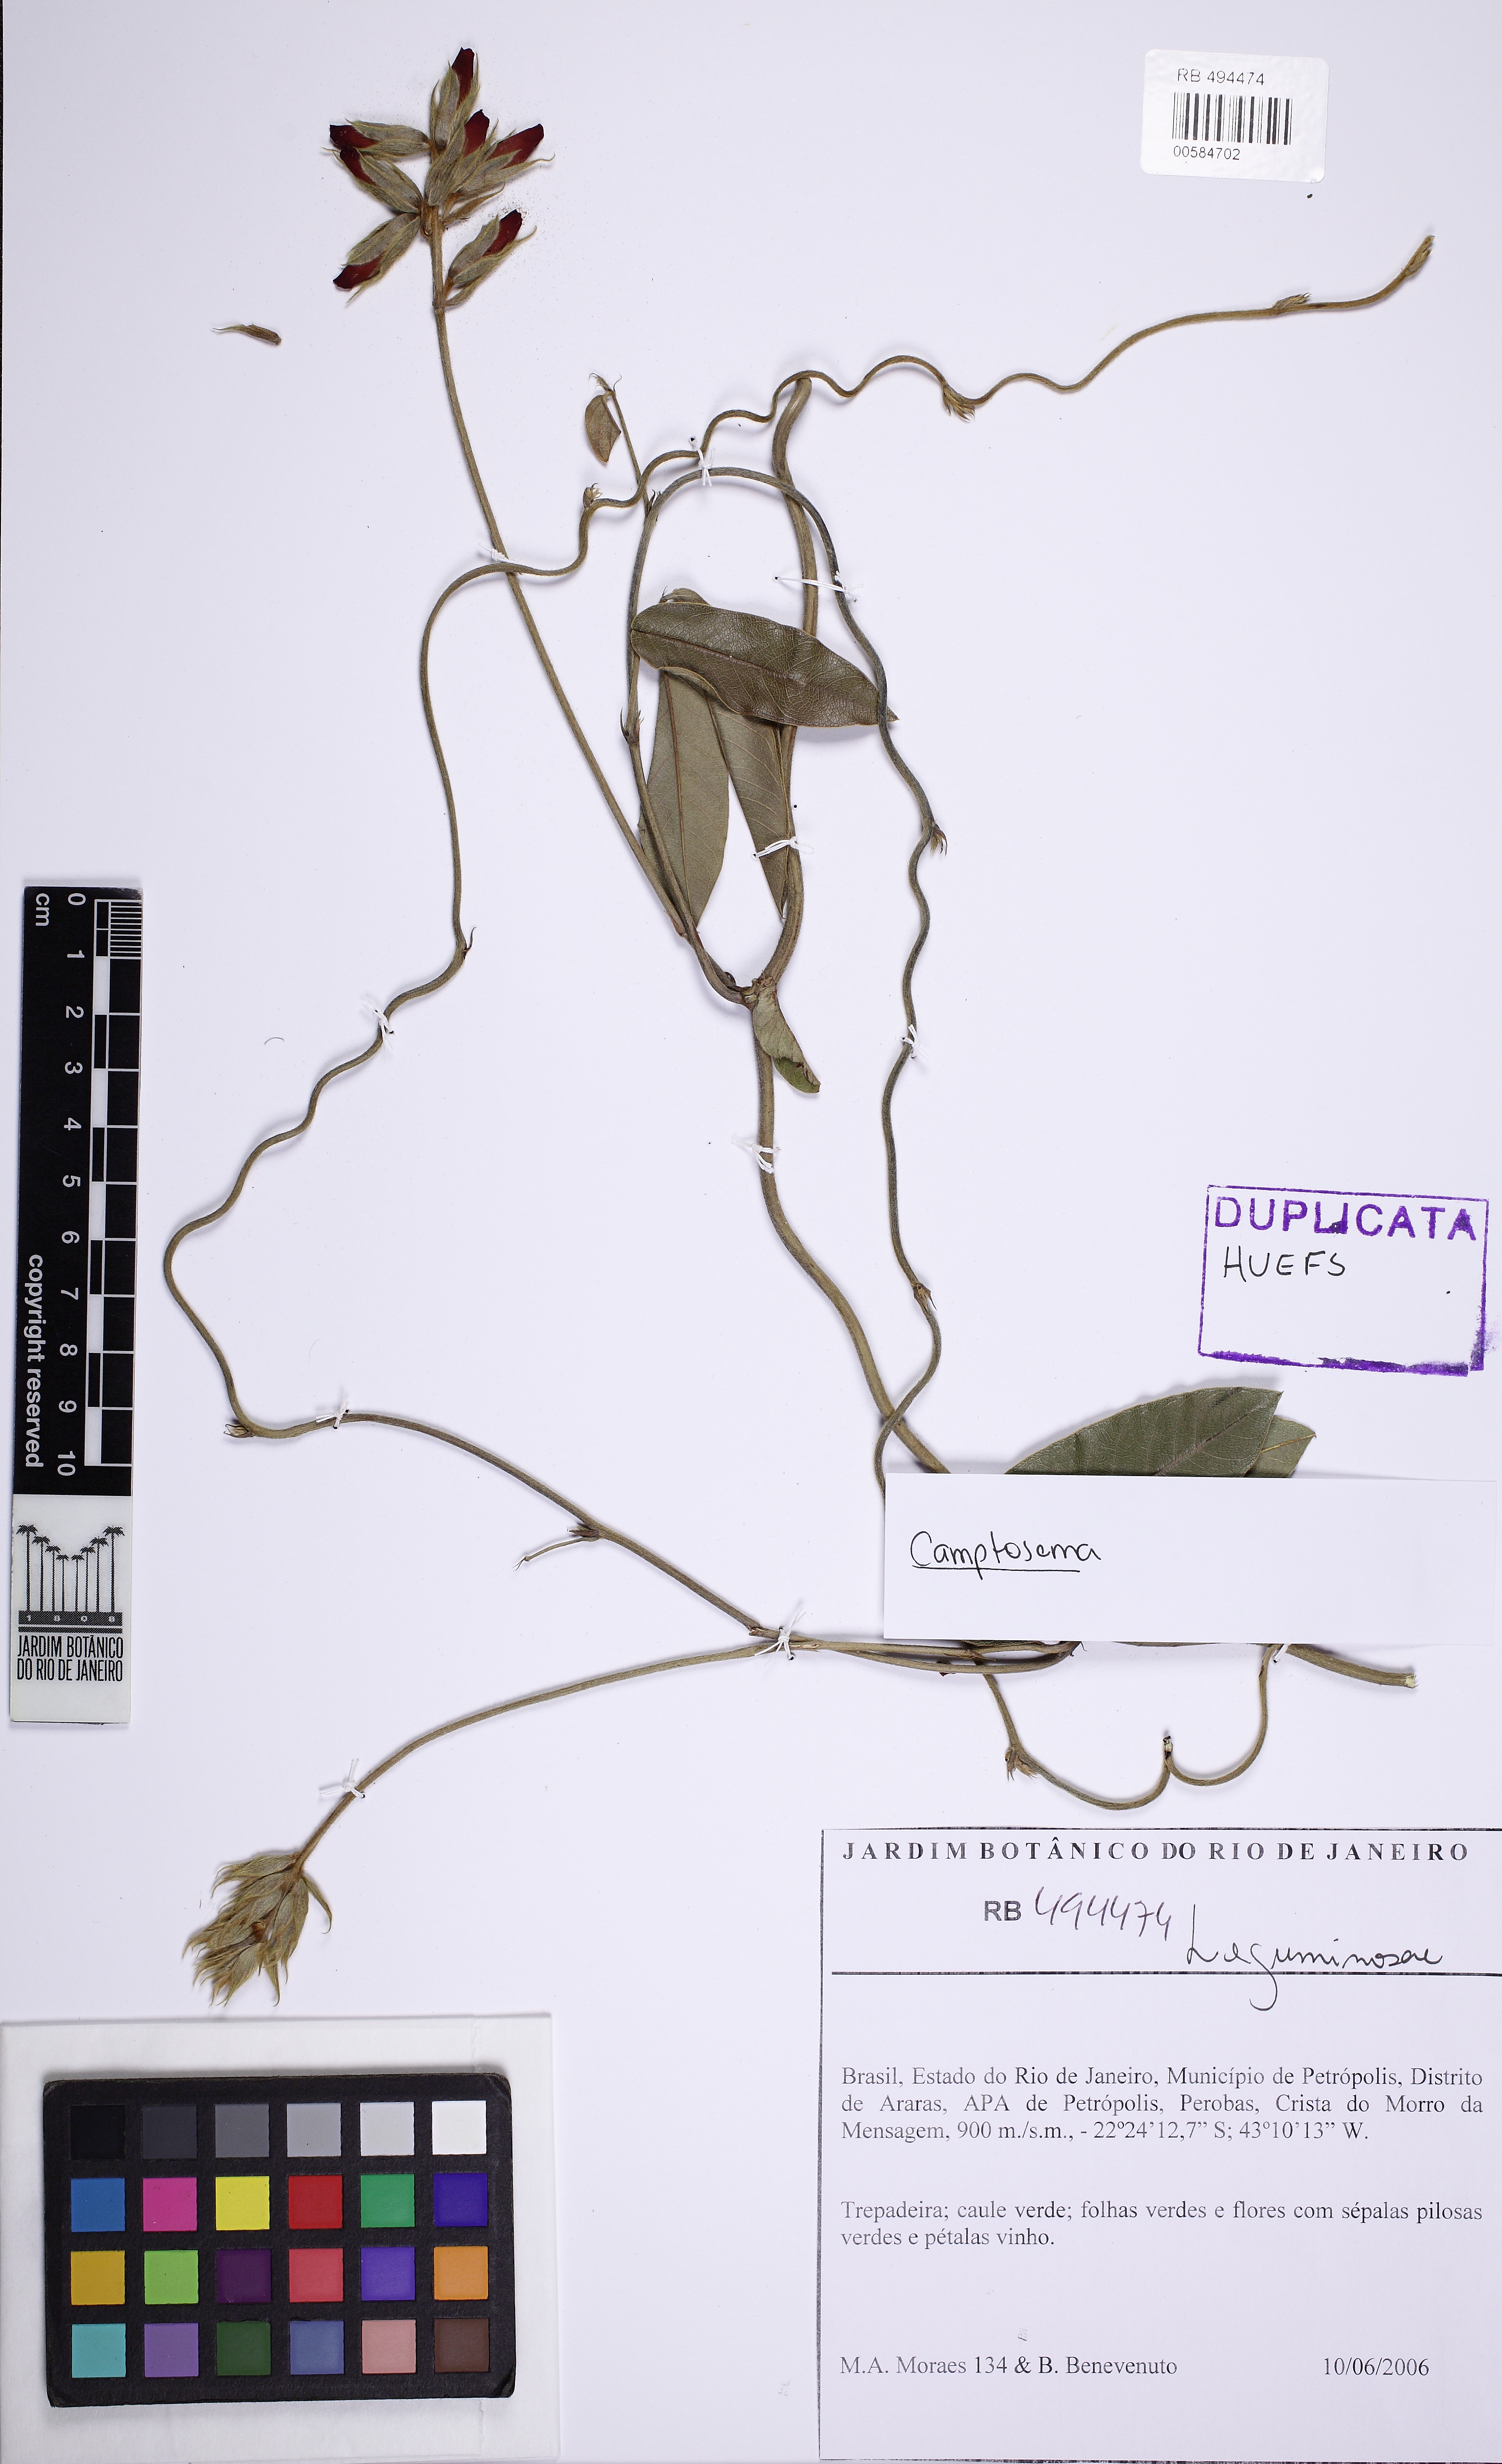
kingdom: Plantae
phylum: Tracheophyta
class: Magnoliopsida
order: Fabales
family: Fabaceae
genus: Camptosema
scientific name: Camptosema
